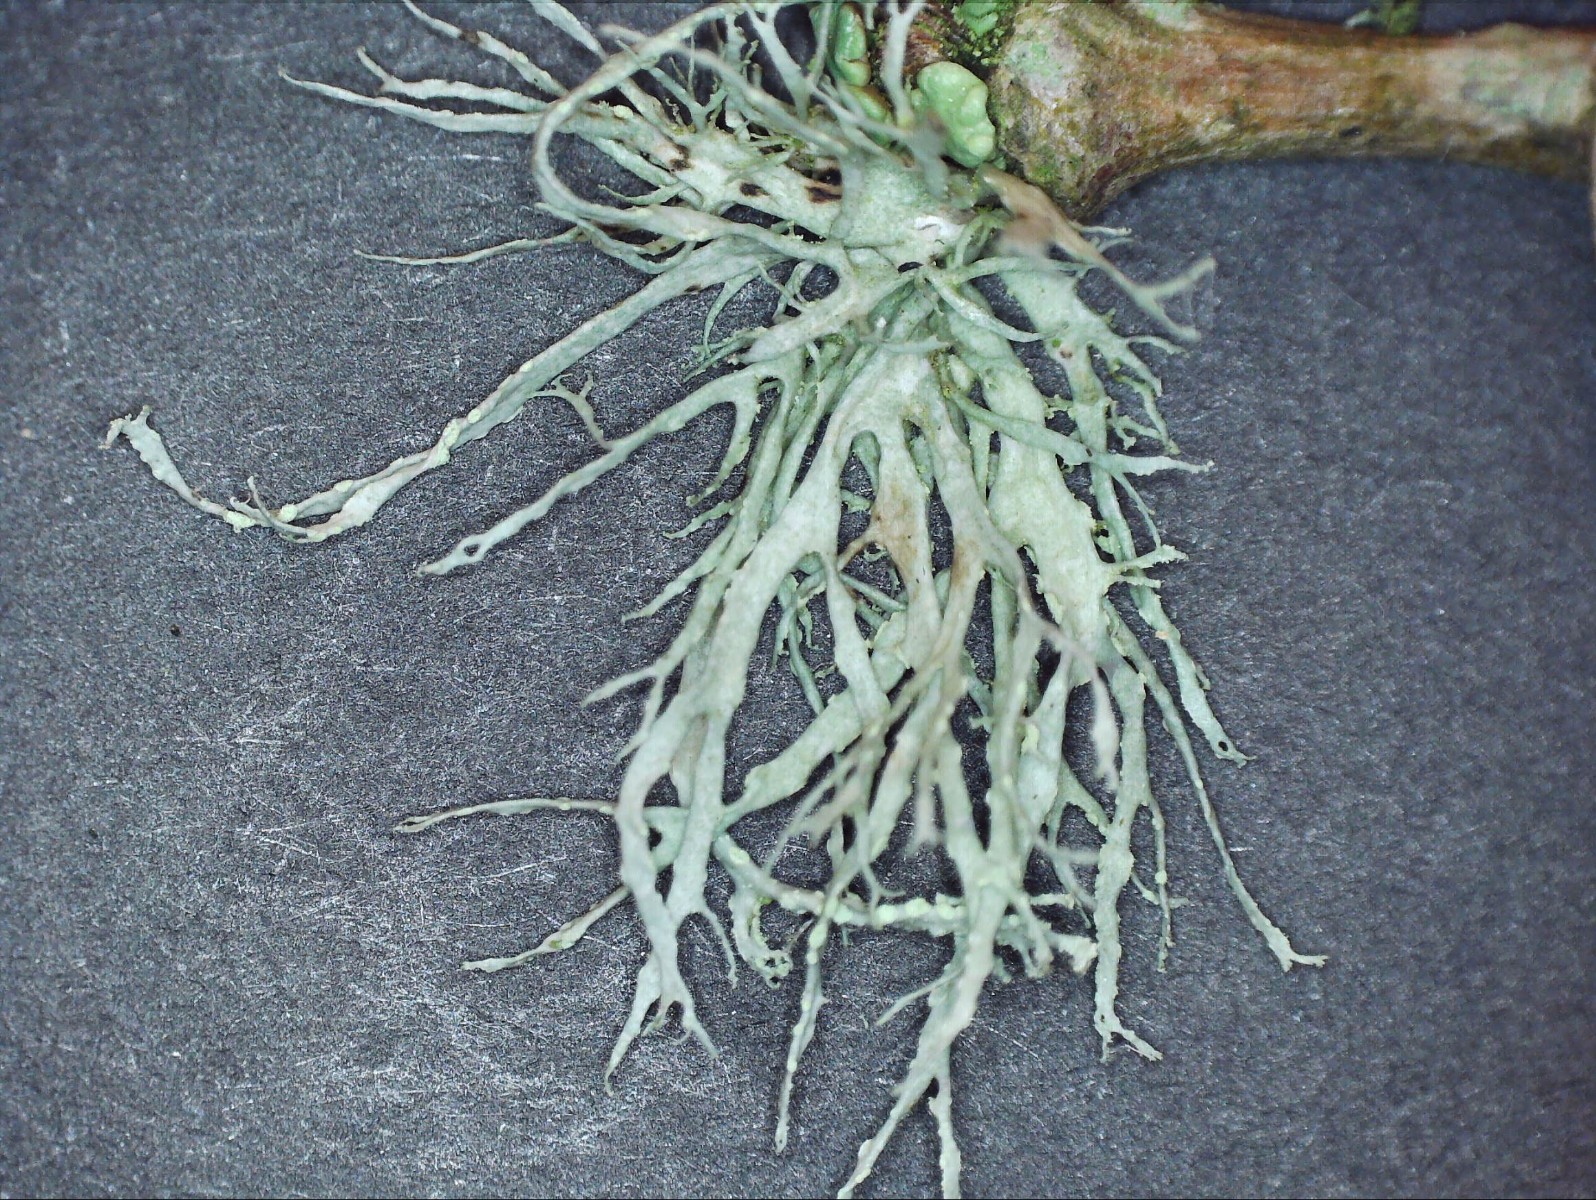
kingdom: Fungi
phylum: Ascomycota
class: Lecanoromycetes
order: Lecanorales
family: Ramalinaceae
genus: Ramalina
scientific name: Ramalina farinacea
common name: melet grenlav
